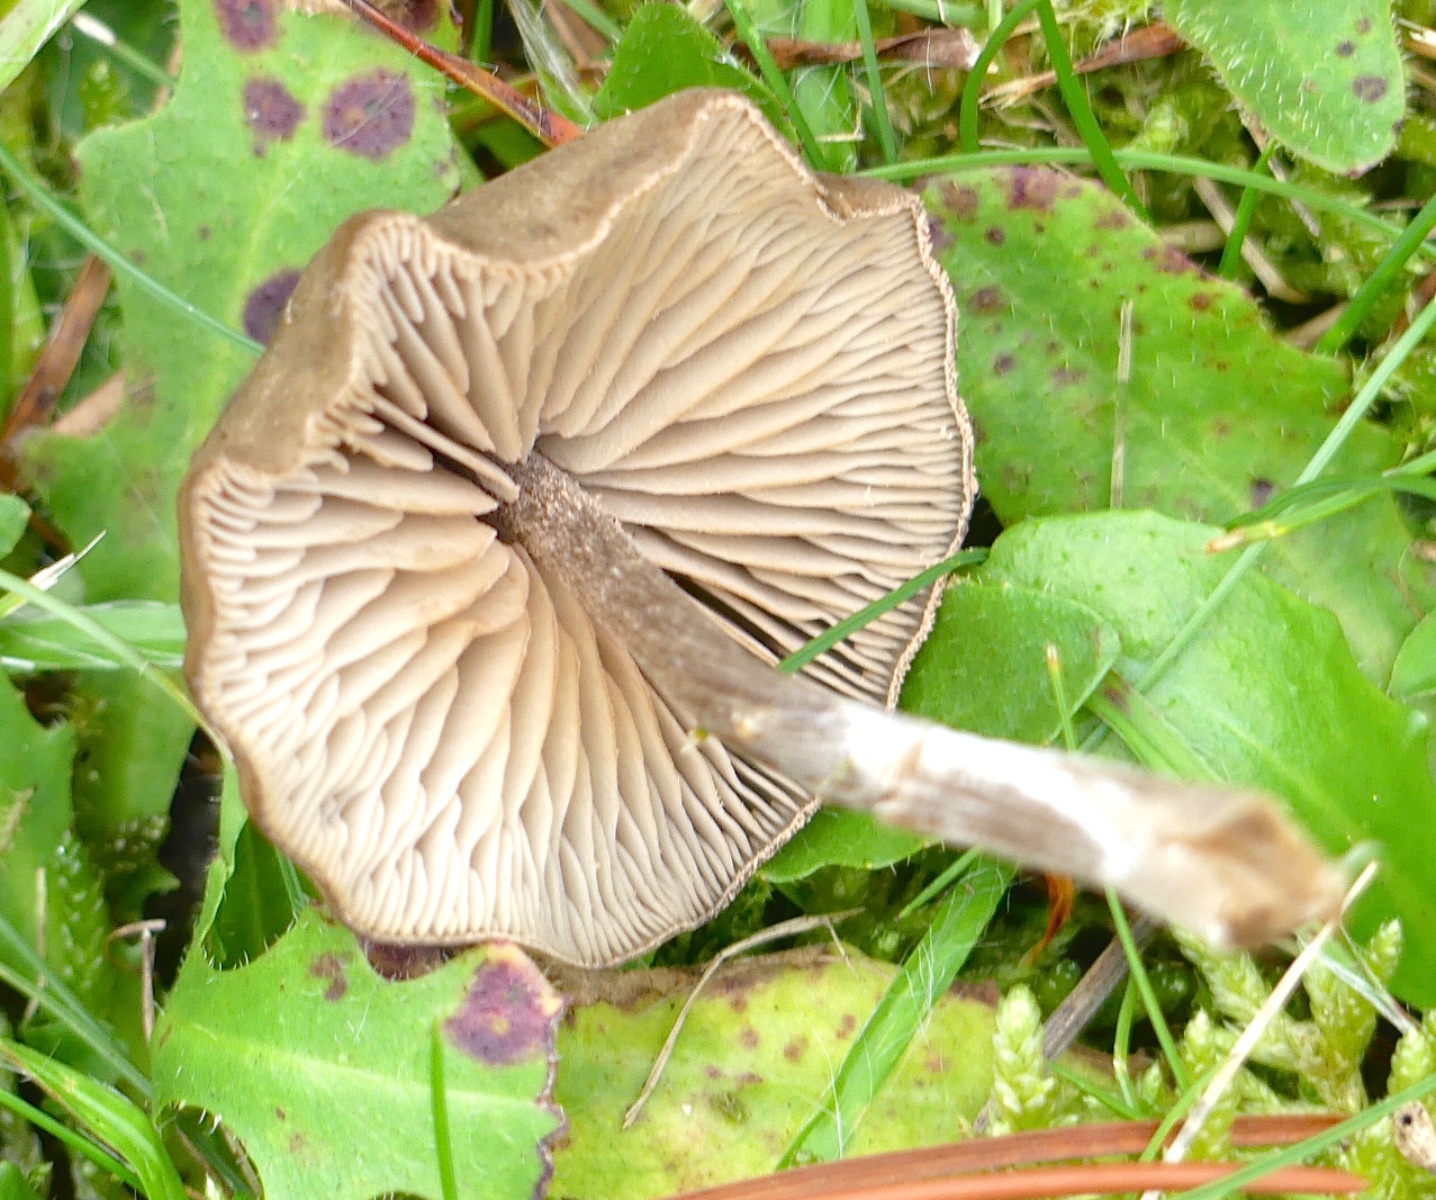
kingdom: Fungi
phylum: Basidiomycota
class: Agaricomycetes
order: Agaricales
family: Entolomataceae
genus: Entoloma
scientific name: Entoloma
